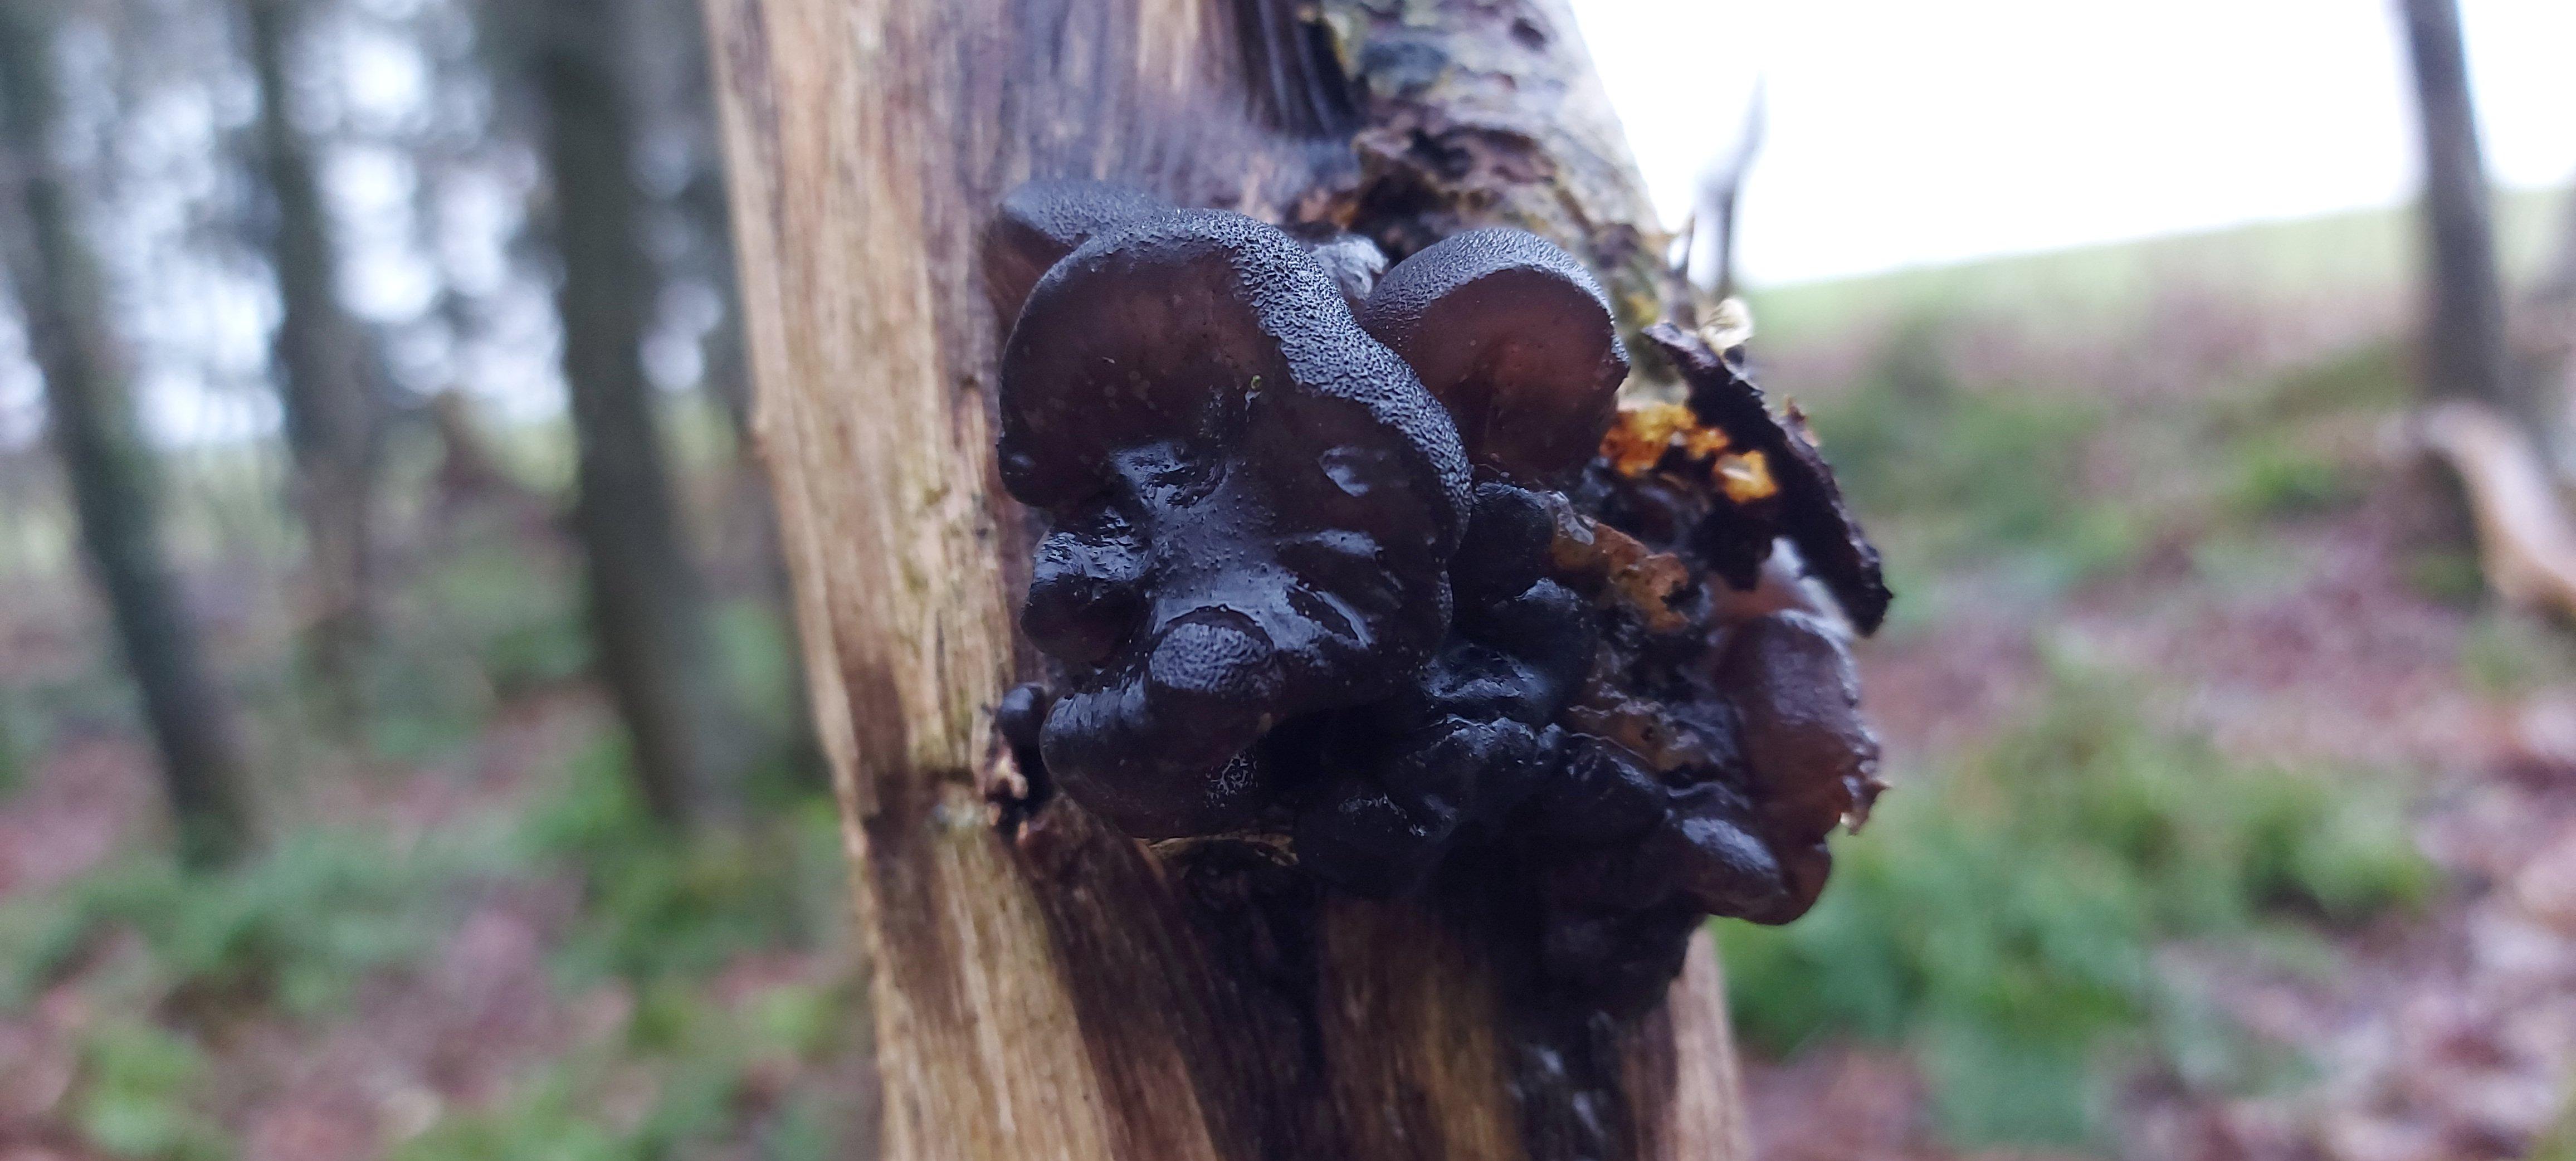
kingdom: Fungi
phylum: Basidiomycota
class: Agaricomycetes
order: Auriculariales
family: Auriculariaceae
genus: Exidia
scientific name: Exidia glandulosa
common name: ege-bævretop
